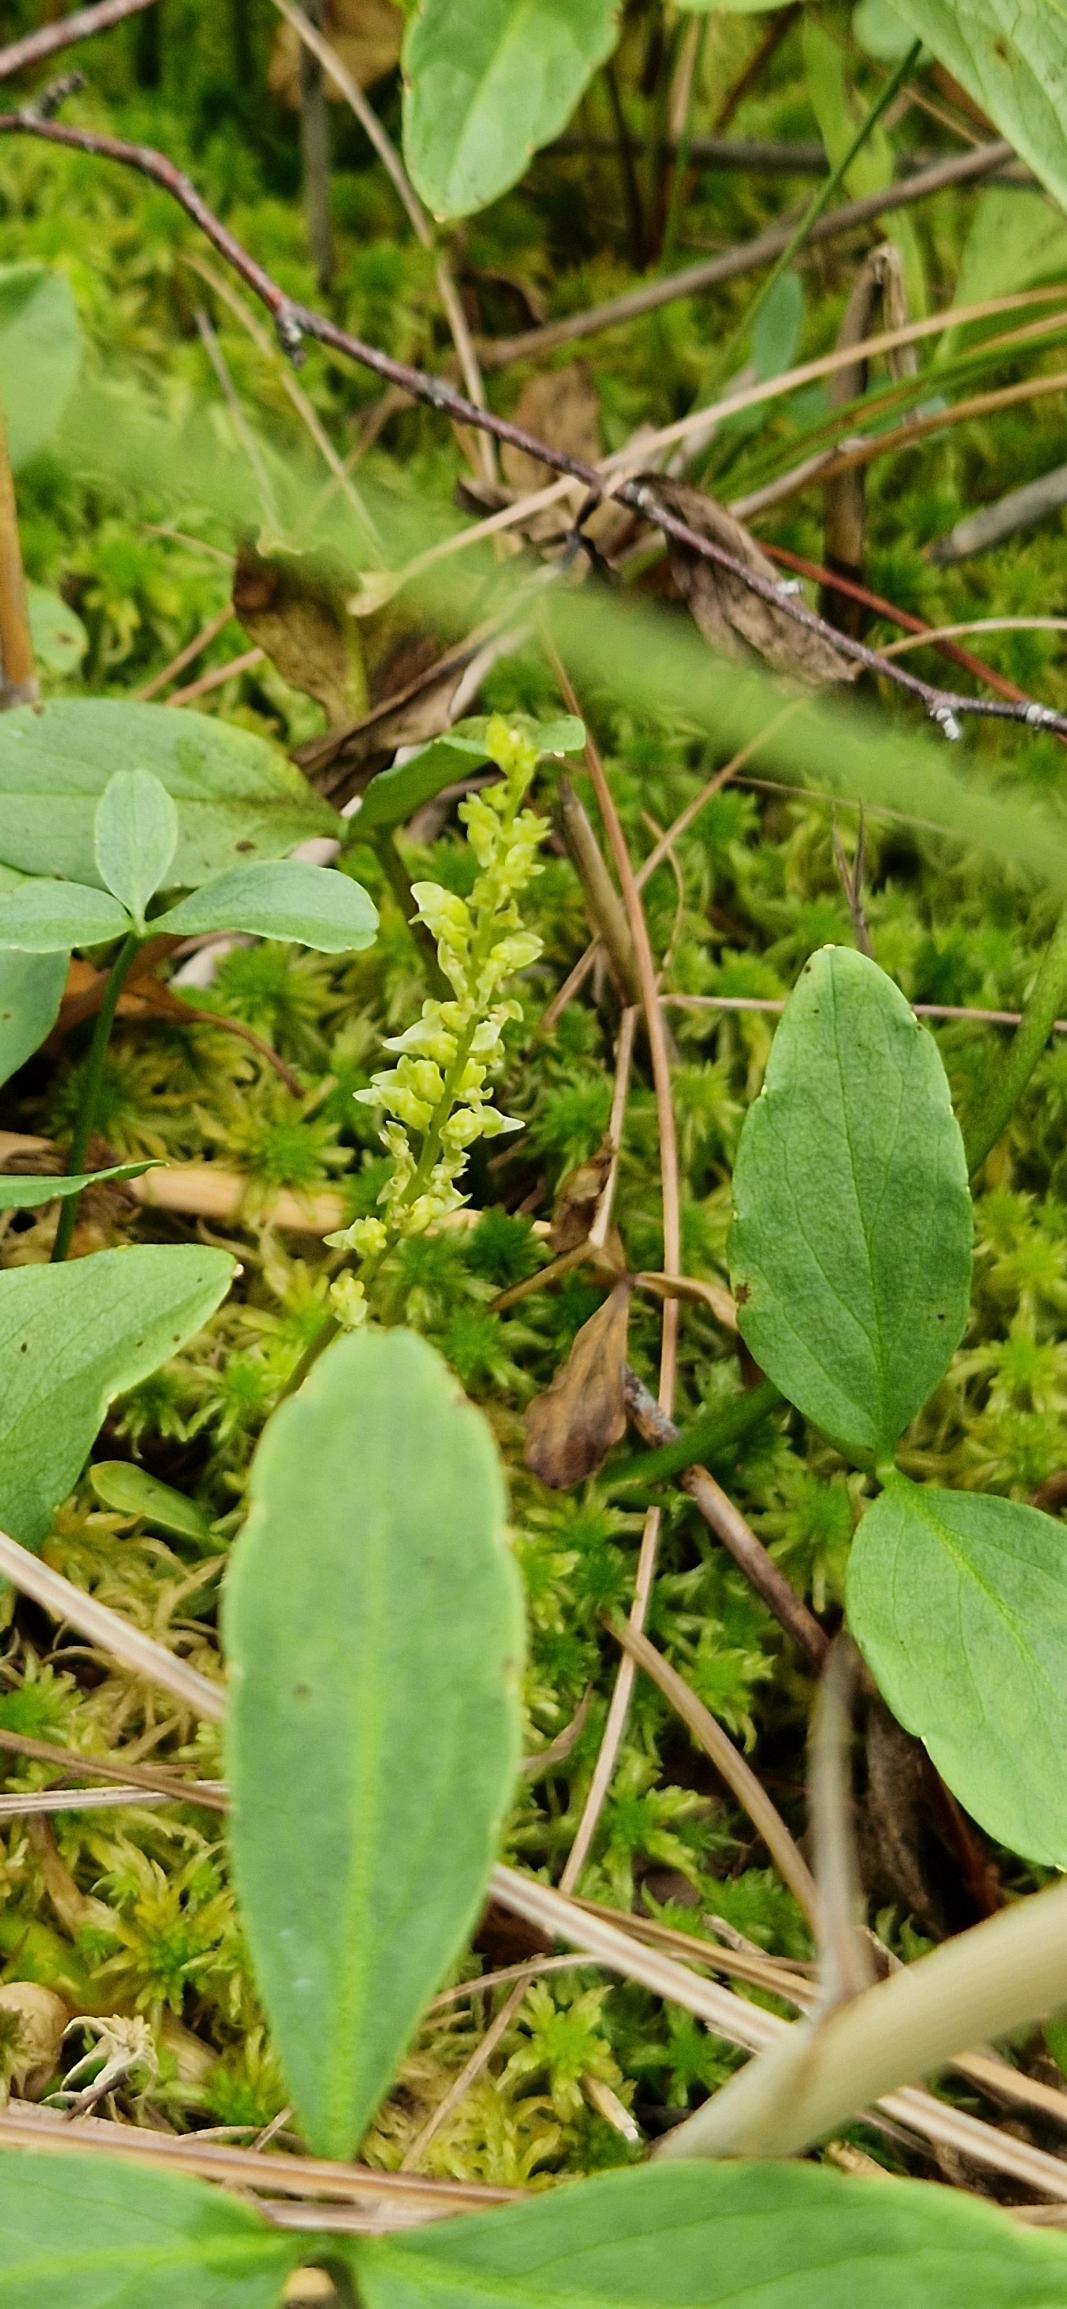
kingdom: Plantae
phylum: Tracheophyta
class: Liliopsida
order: Asparagales
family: Orchidaceae
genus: Hammarbya
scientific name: Hammarbya paludosa
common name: Hjertelæbe
